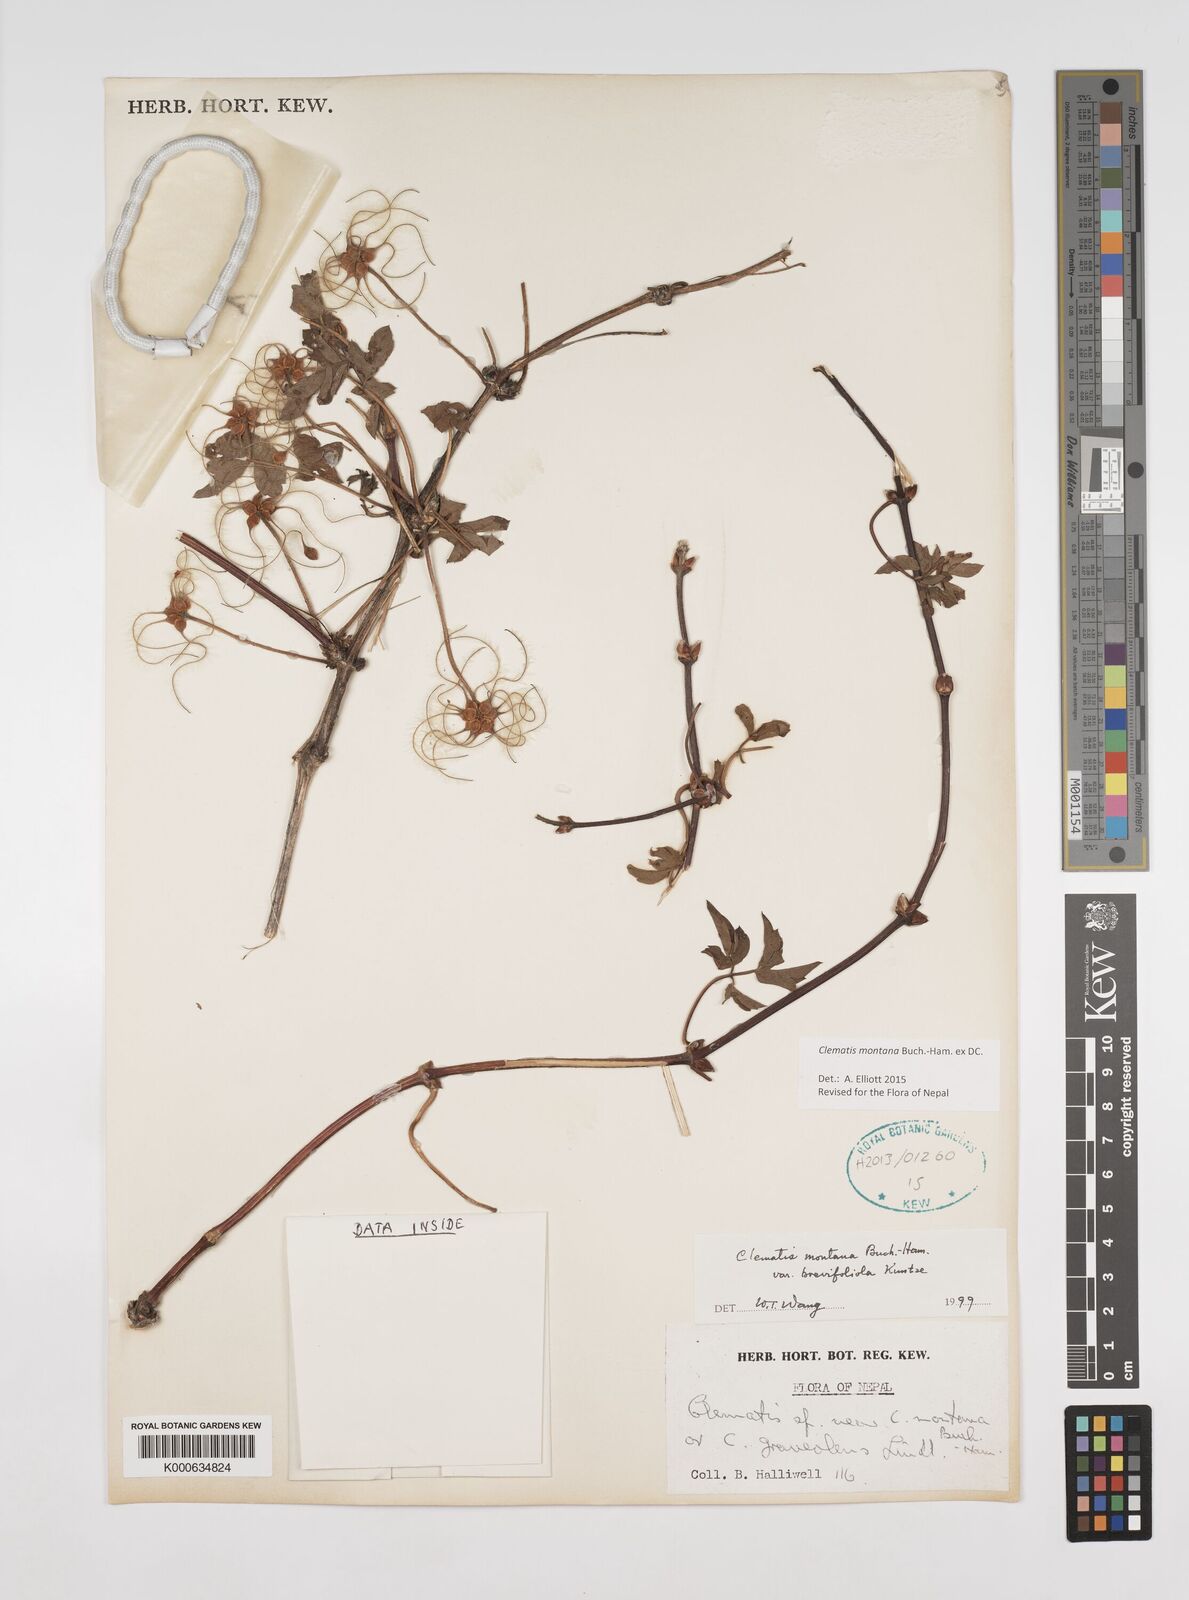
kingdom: Plantae
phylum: Tracheophyta
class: Magnoliopsida
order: Ranunculales
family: Ranunculaceae
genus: Clematis
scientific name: Clematis montana
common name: Himalayan clematis
